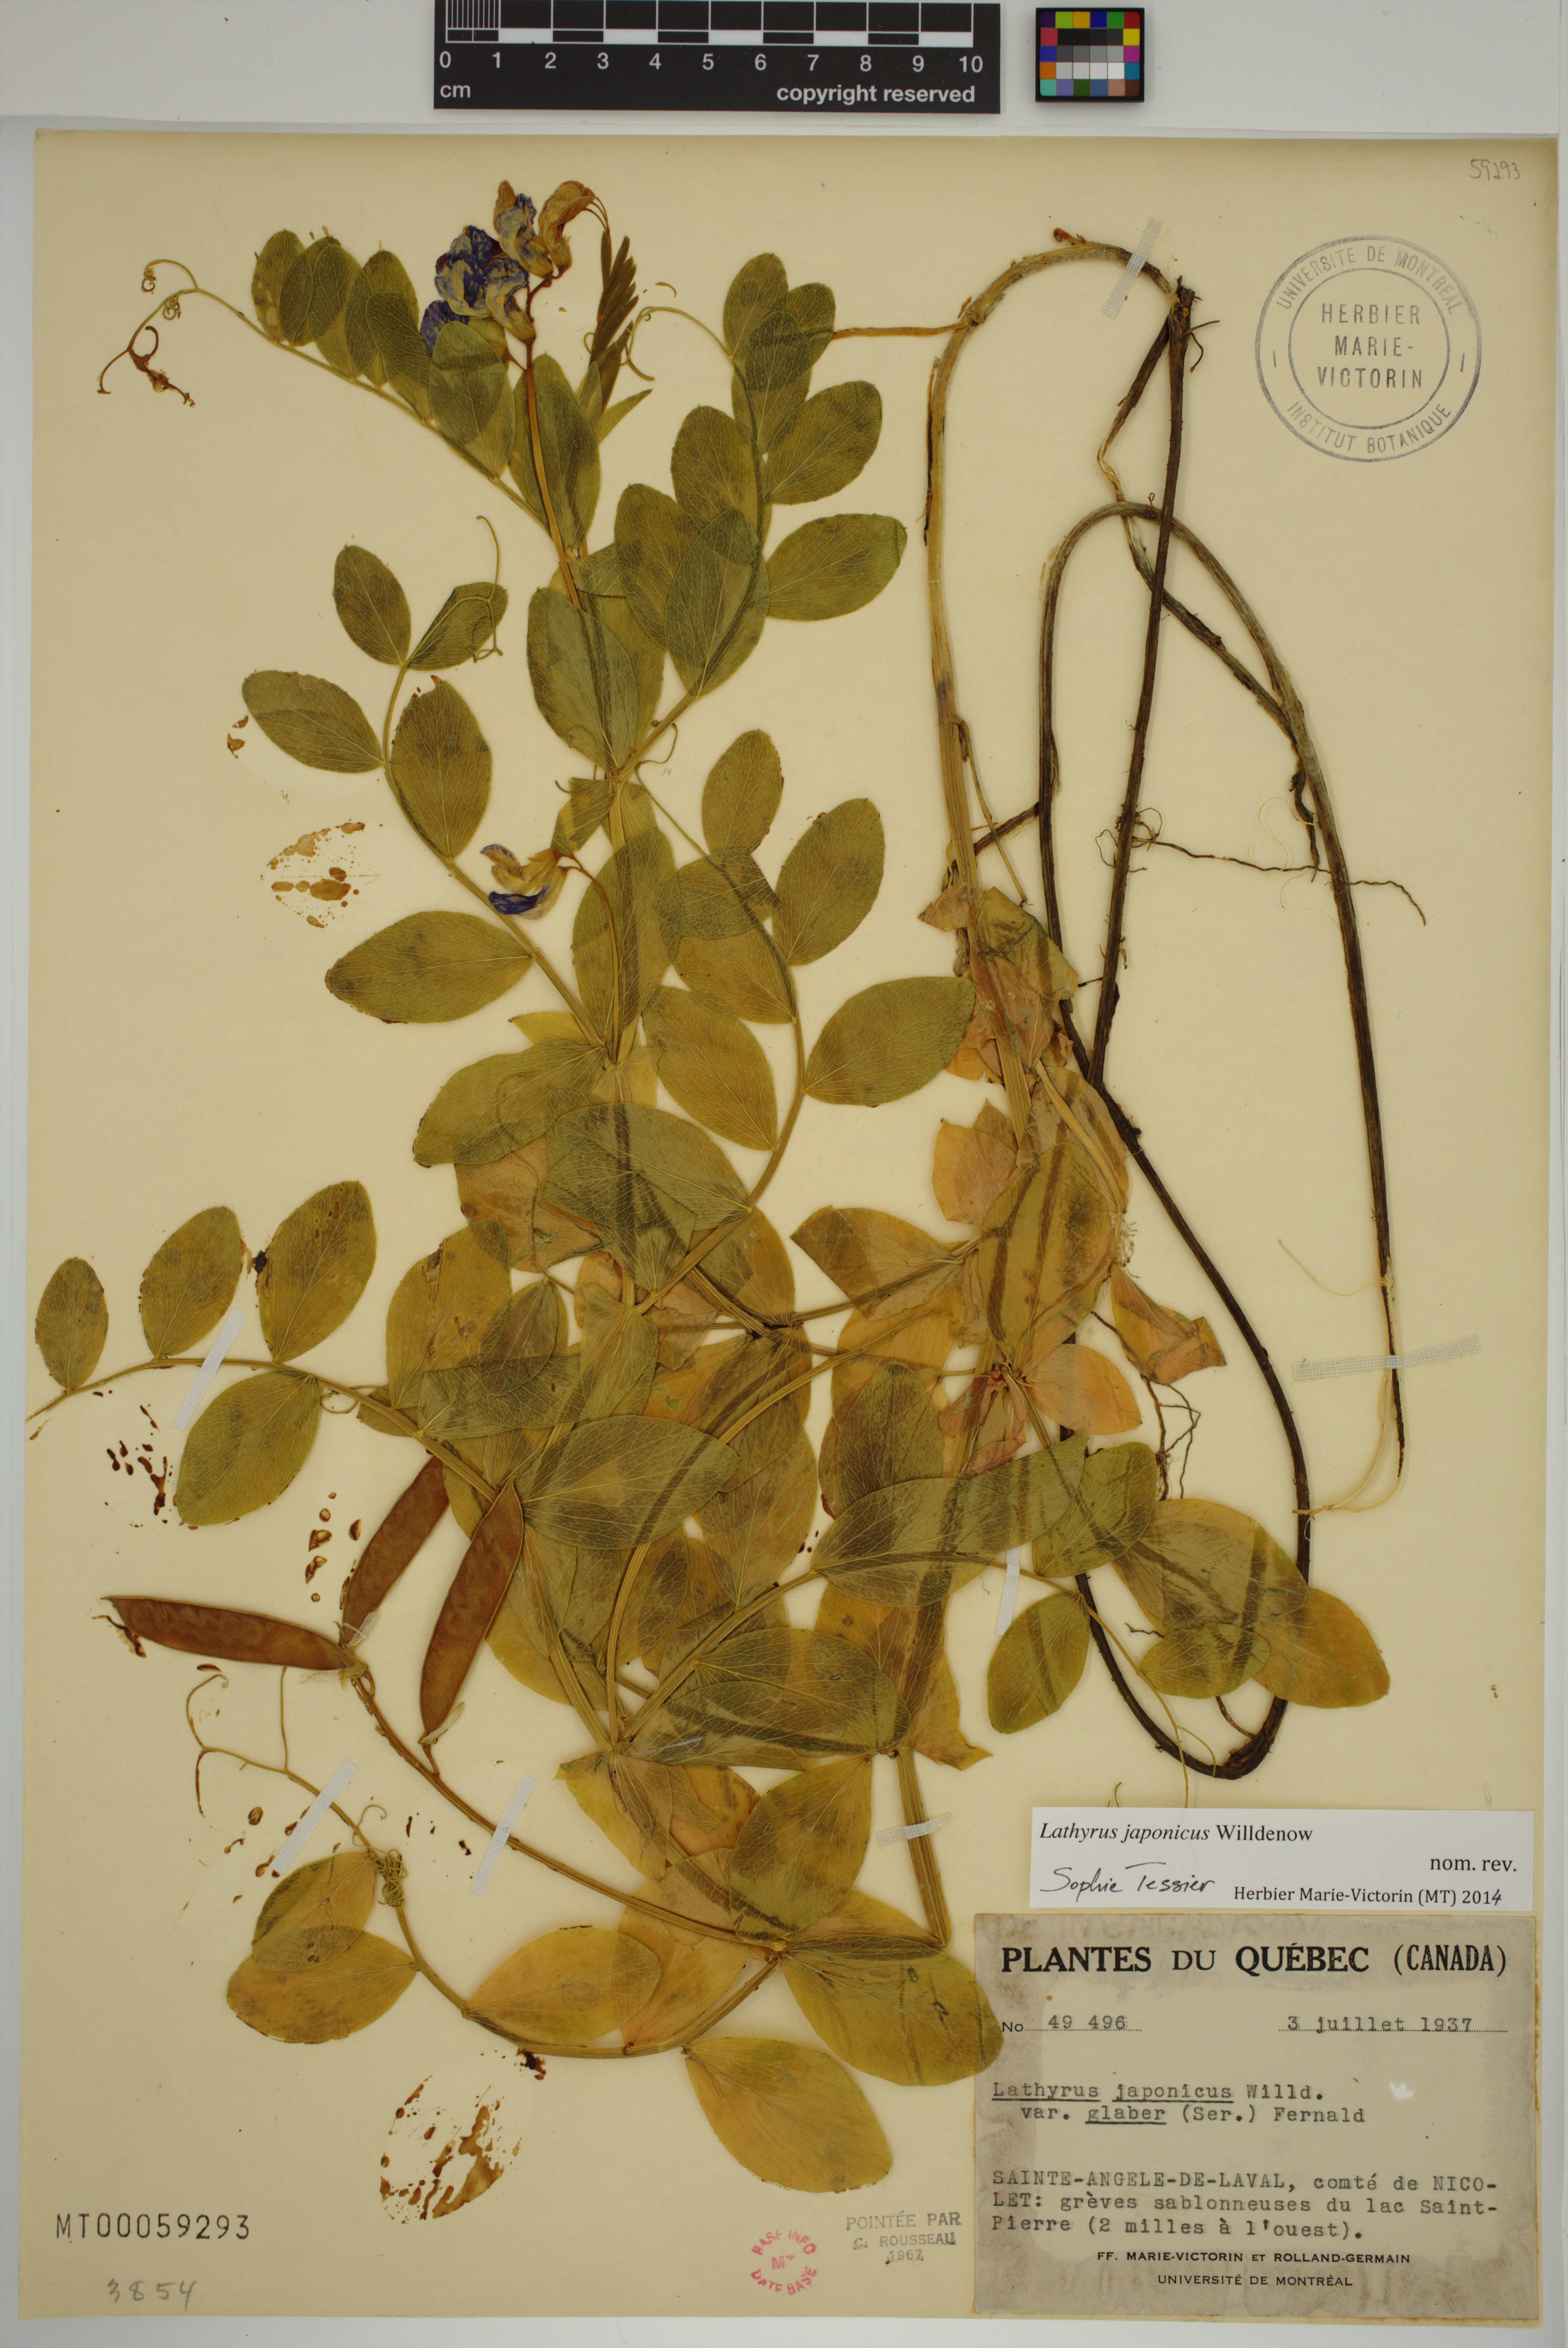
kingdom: Plantae
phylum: Tracheophyta
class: Magnoliopsida
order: Fabales
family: Fabaceae
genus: Lathyrus
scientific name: Lathyrus japonicus
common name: Sea pea
